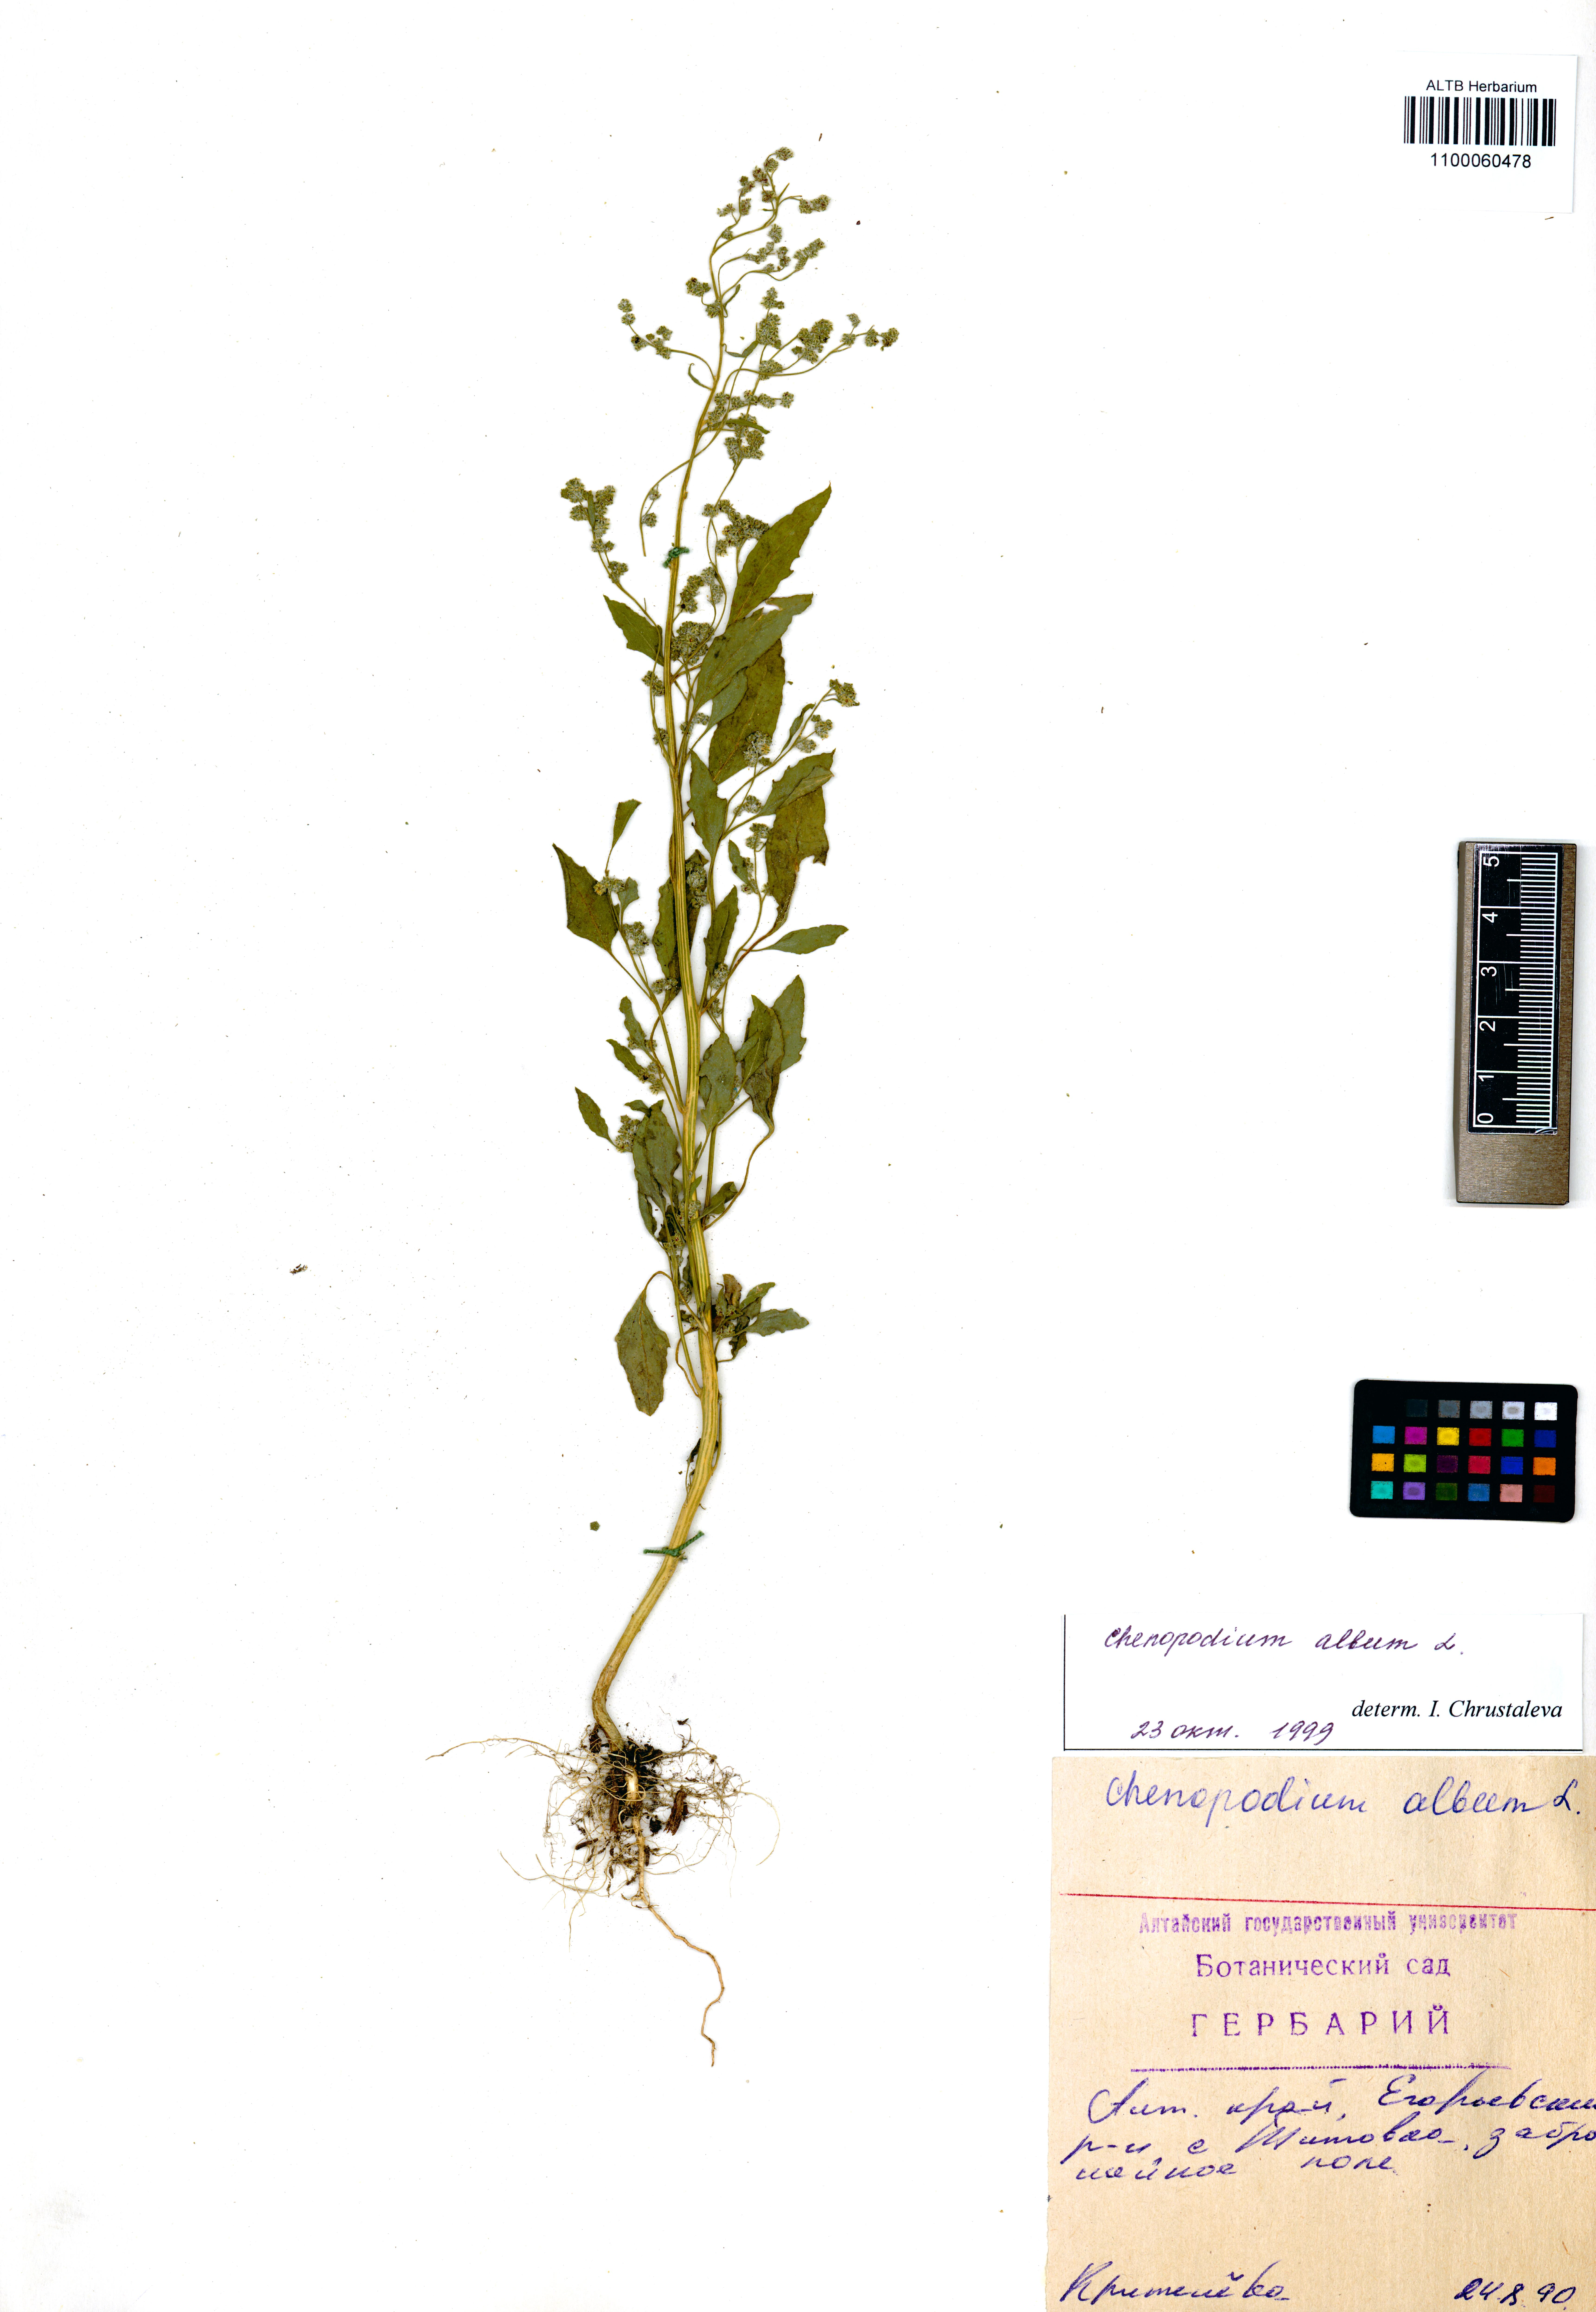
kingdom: Plantae
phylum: Tracheophyta
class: Magnoliopsida
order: Caryophyllales
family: Amaranthaceae
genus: Chenopodium
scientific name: Chenopodium album
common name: Fat-hen
